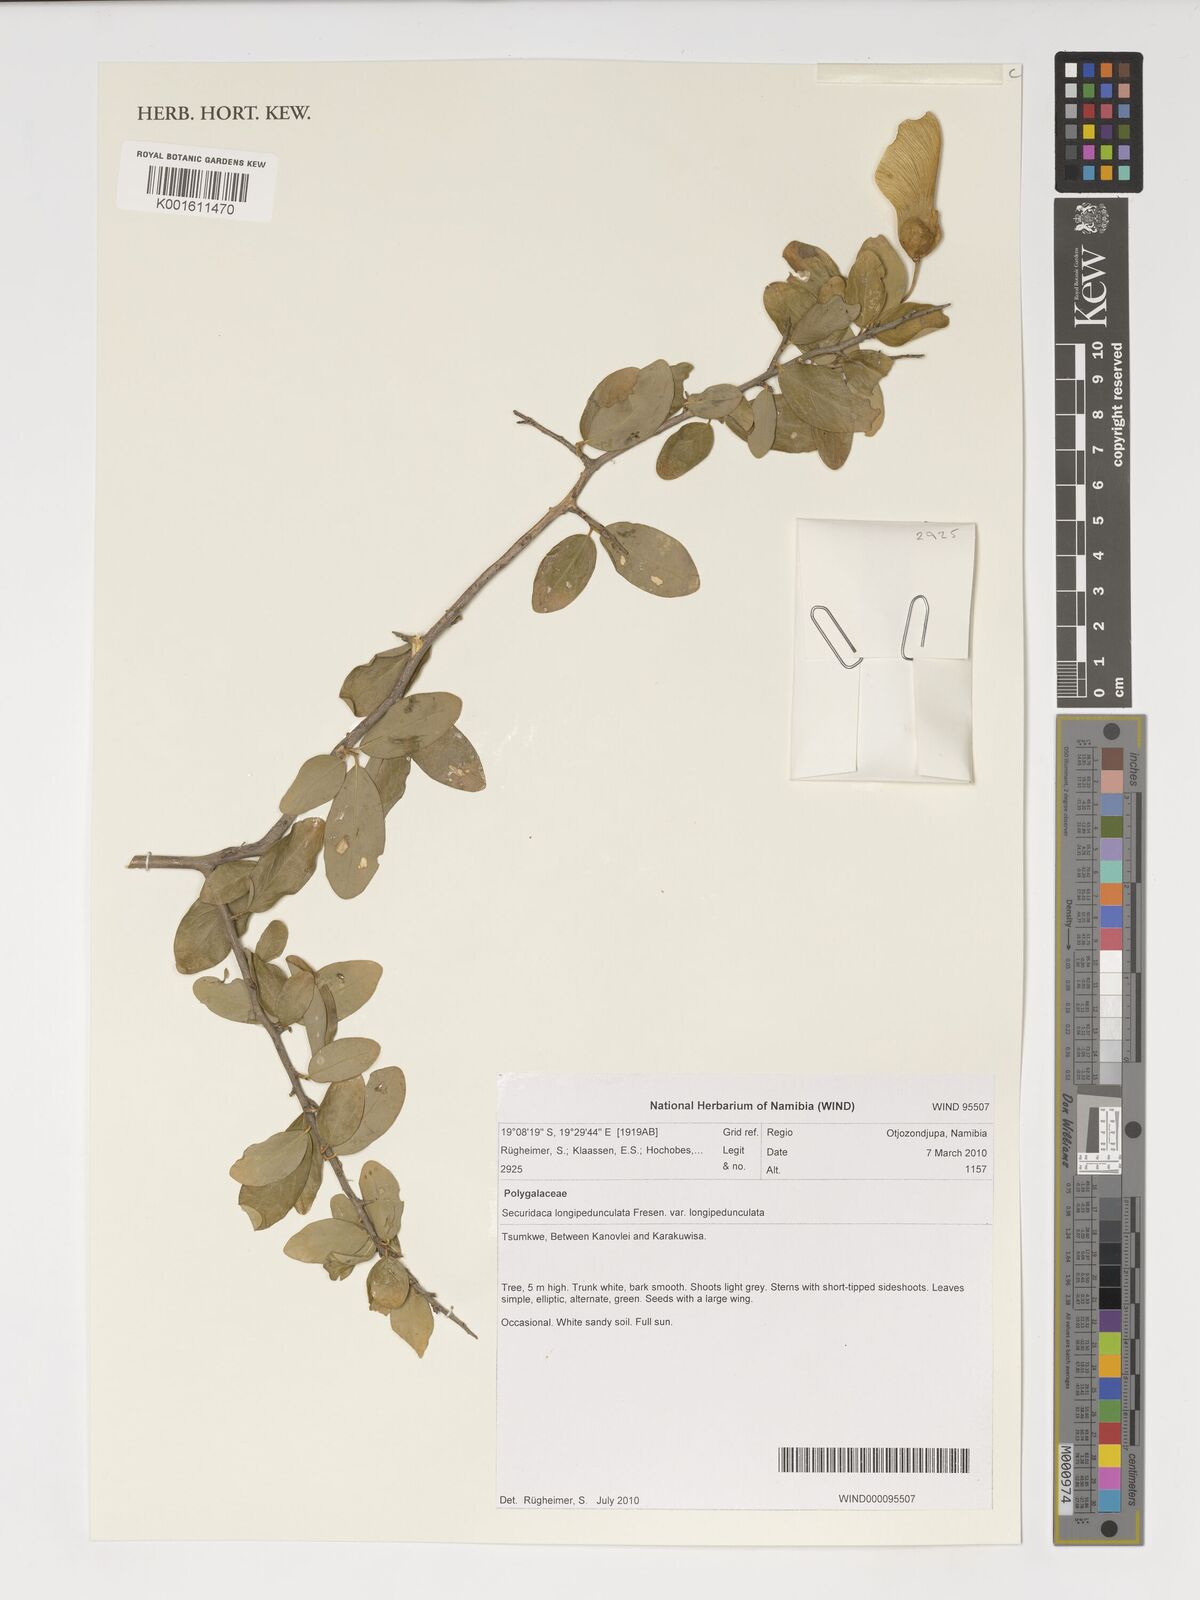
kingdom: Plantae
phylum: Tracheophyta
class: Magnoliopsida
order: Fabales
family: Polygalaceae
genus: Securidaca
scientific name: Securidaca longepedunculata
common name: Violet tree
